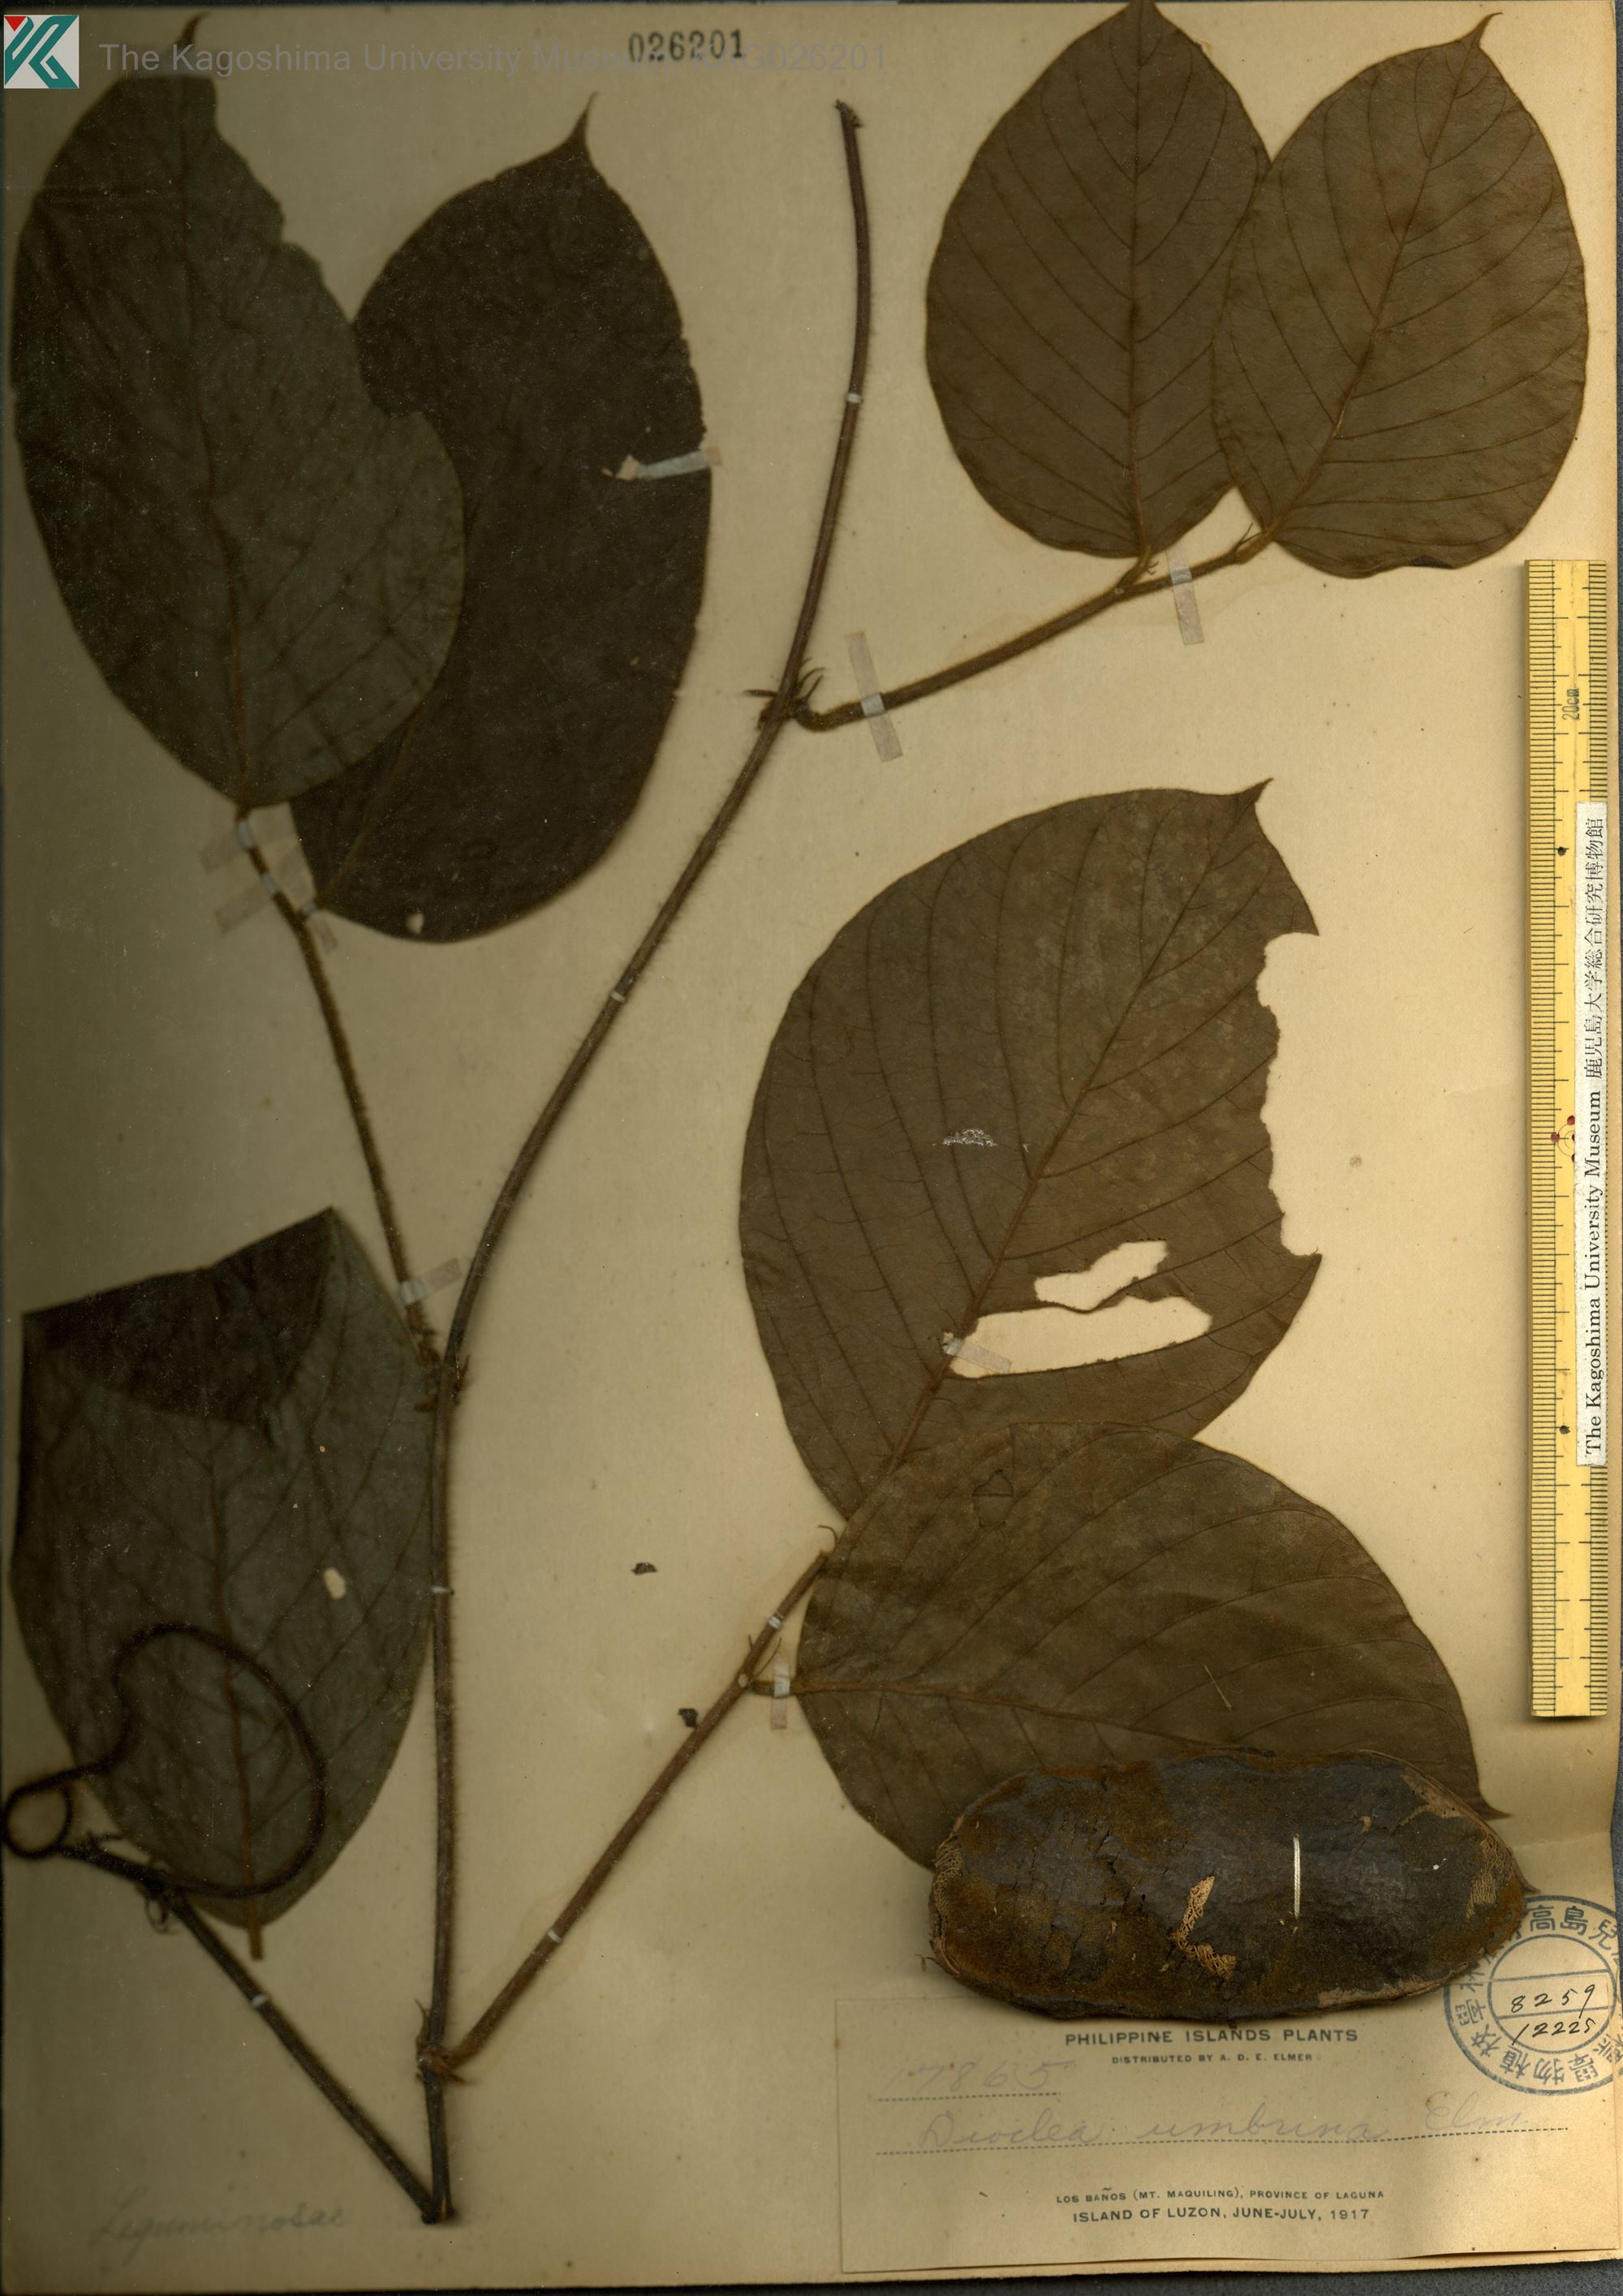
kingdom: Plantae
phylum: Tracheophyta
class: Magnoliopsida
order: Fabales
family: Fabaceae
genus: Macropsychanthus
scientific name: Macropsychanthus umbrinus
